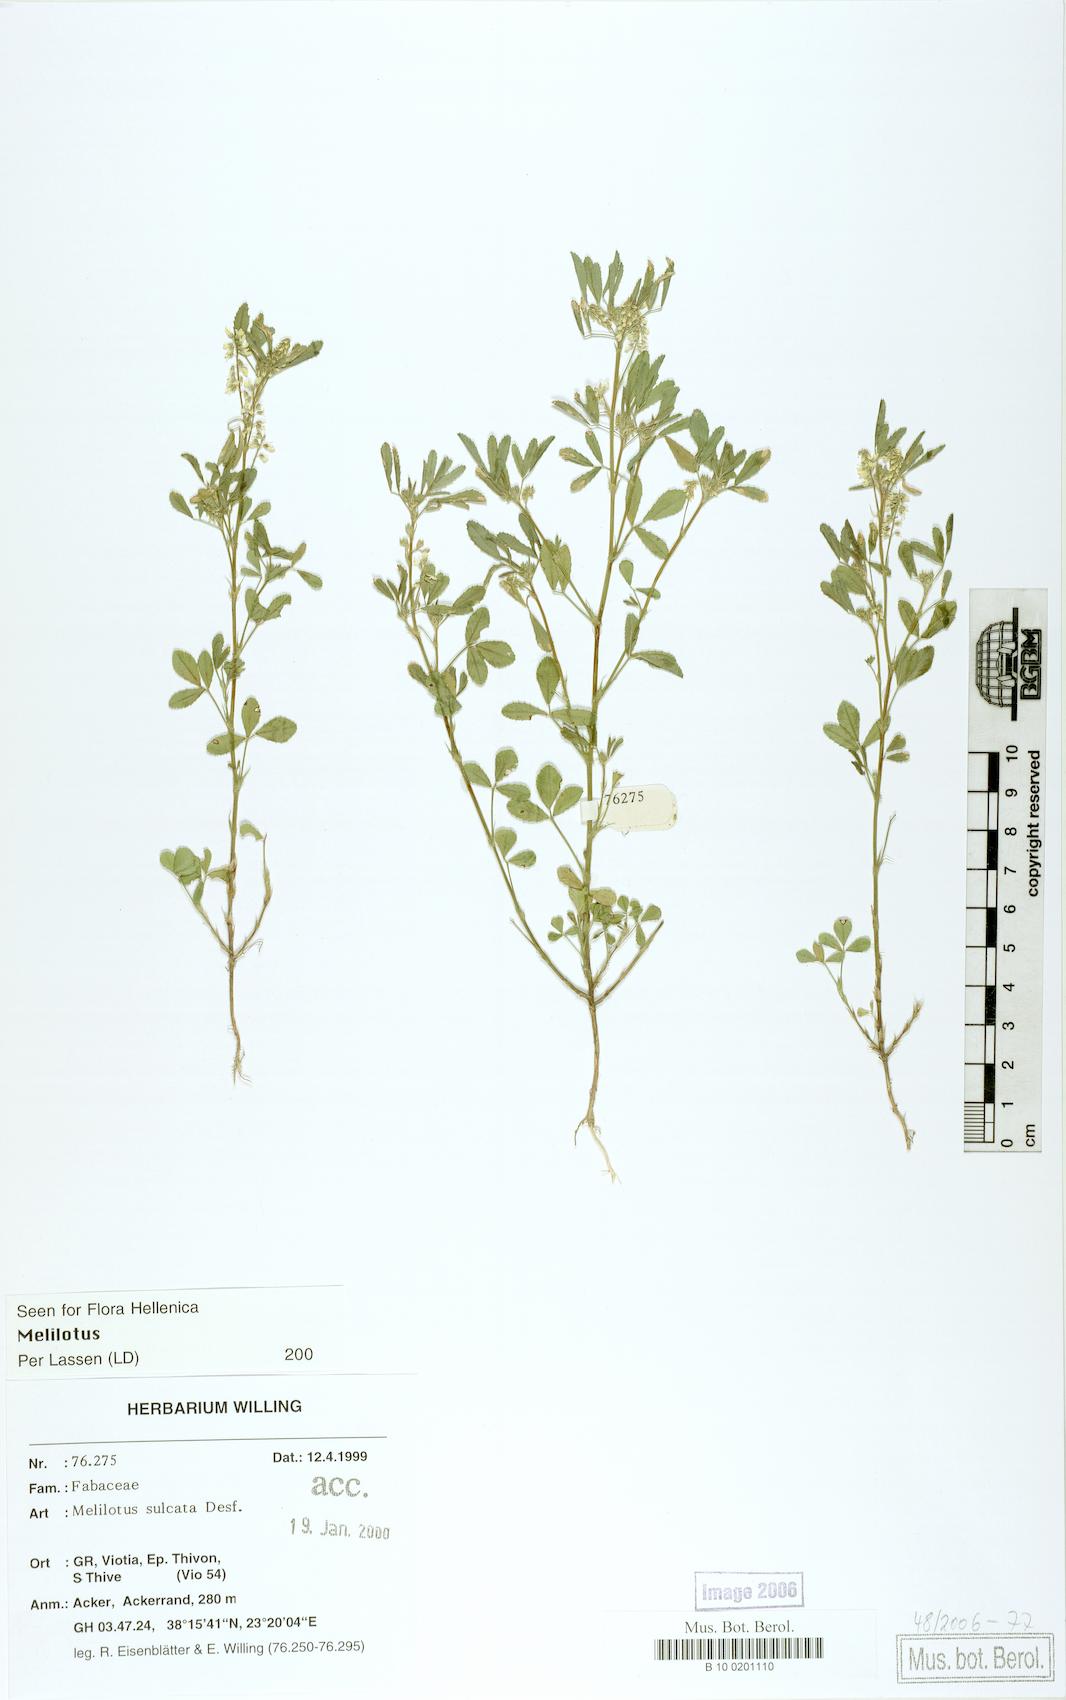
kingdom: Plantae
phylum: Tracheophyta
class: Magnoliopsida
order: Fabales
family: Fabaceae
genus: Melilotus
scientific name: Melilotus sulcatus
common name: Furrowed melilot
